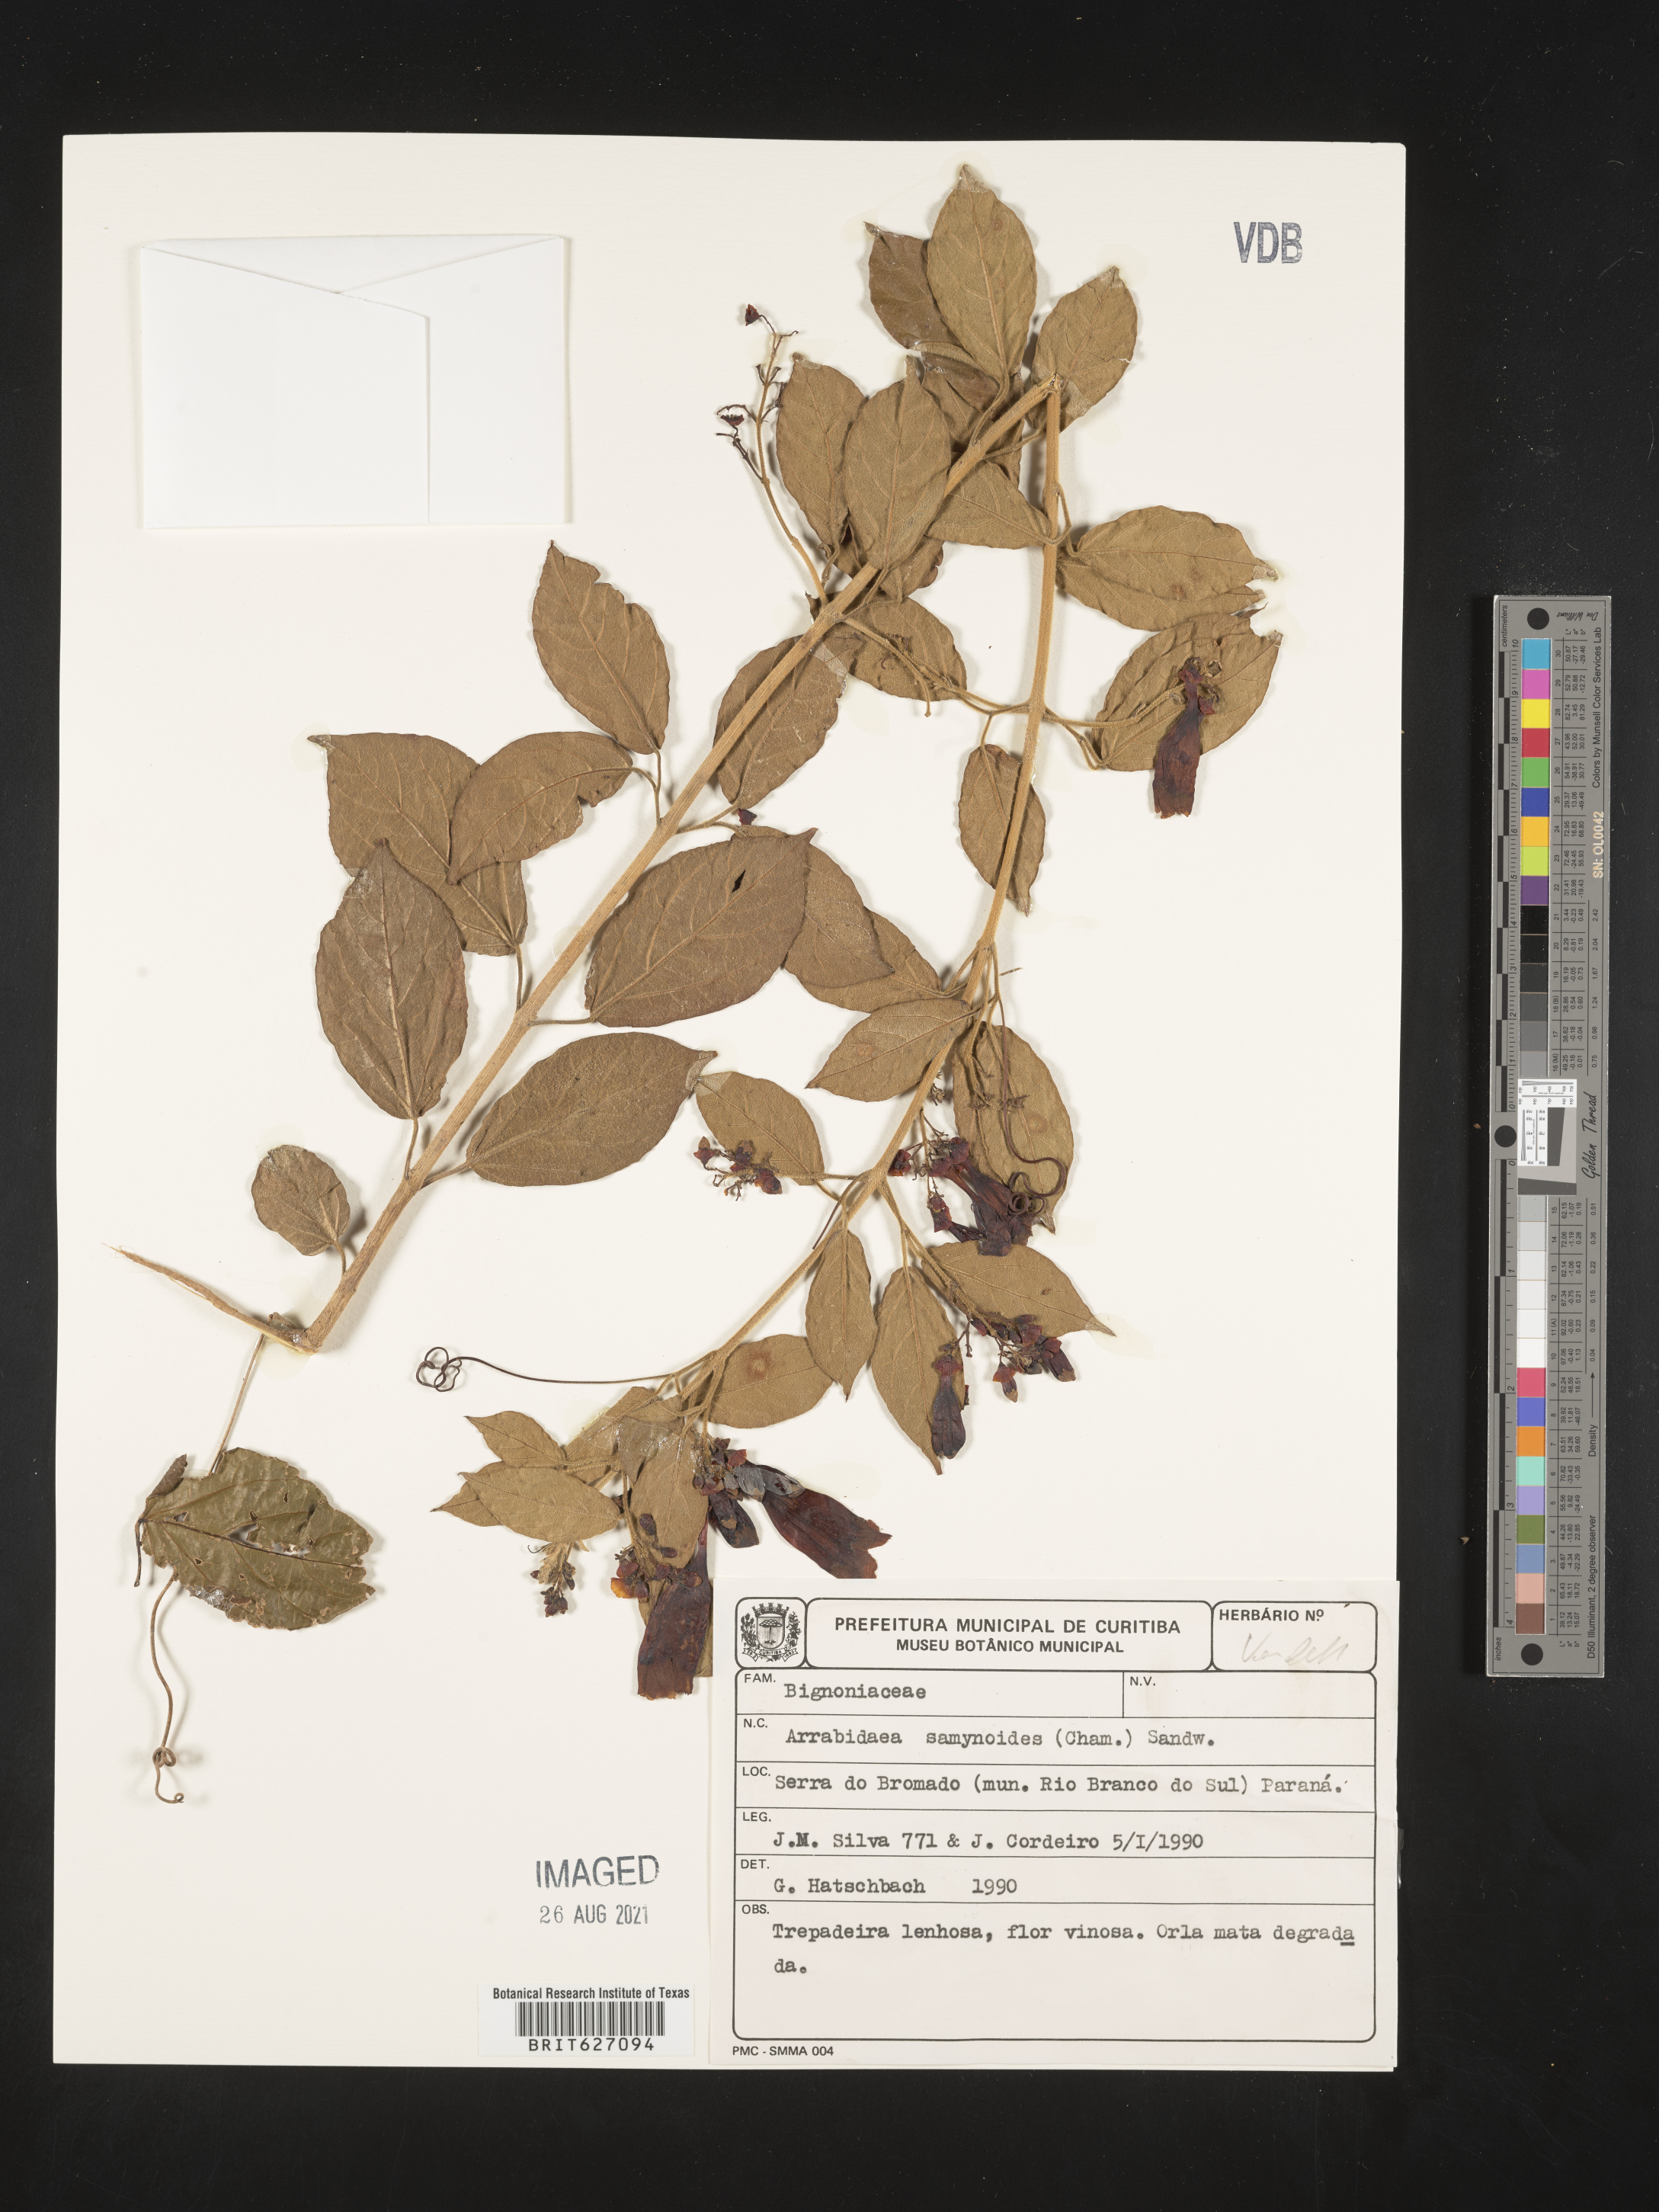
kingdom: Plantae
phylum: Tracheophyta
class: Magnoliopsida
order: Lamiales
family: Bignoniaceae
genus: Fridericia
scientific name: Fridericia samydoides
